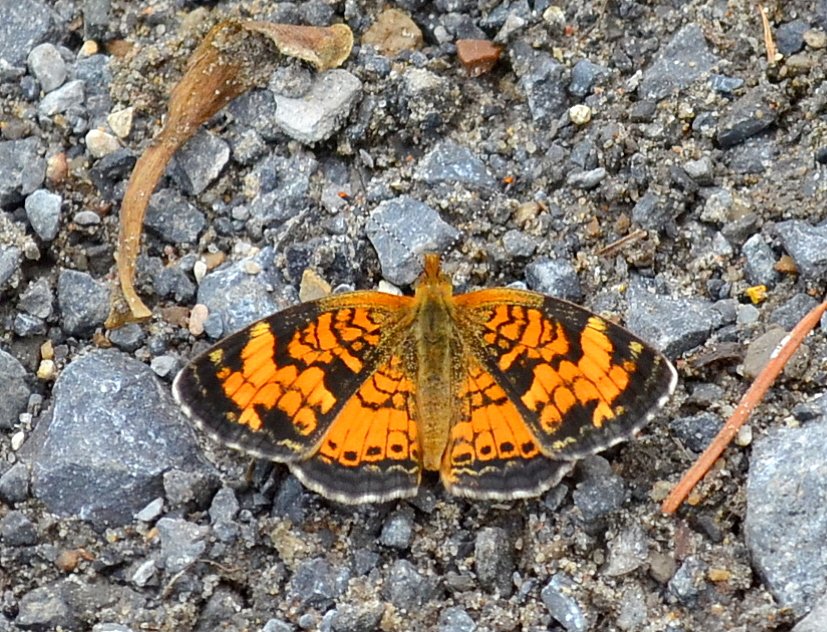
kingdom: Animalia
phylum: Arthropoda
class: Insecta
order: Lepidoptera
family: Nymphalidae
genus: Phyciodes
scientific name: Phyciodes tharos
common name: Northern Crescent
